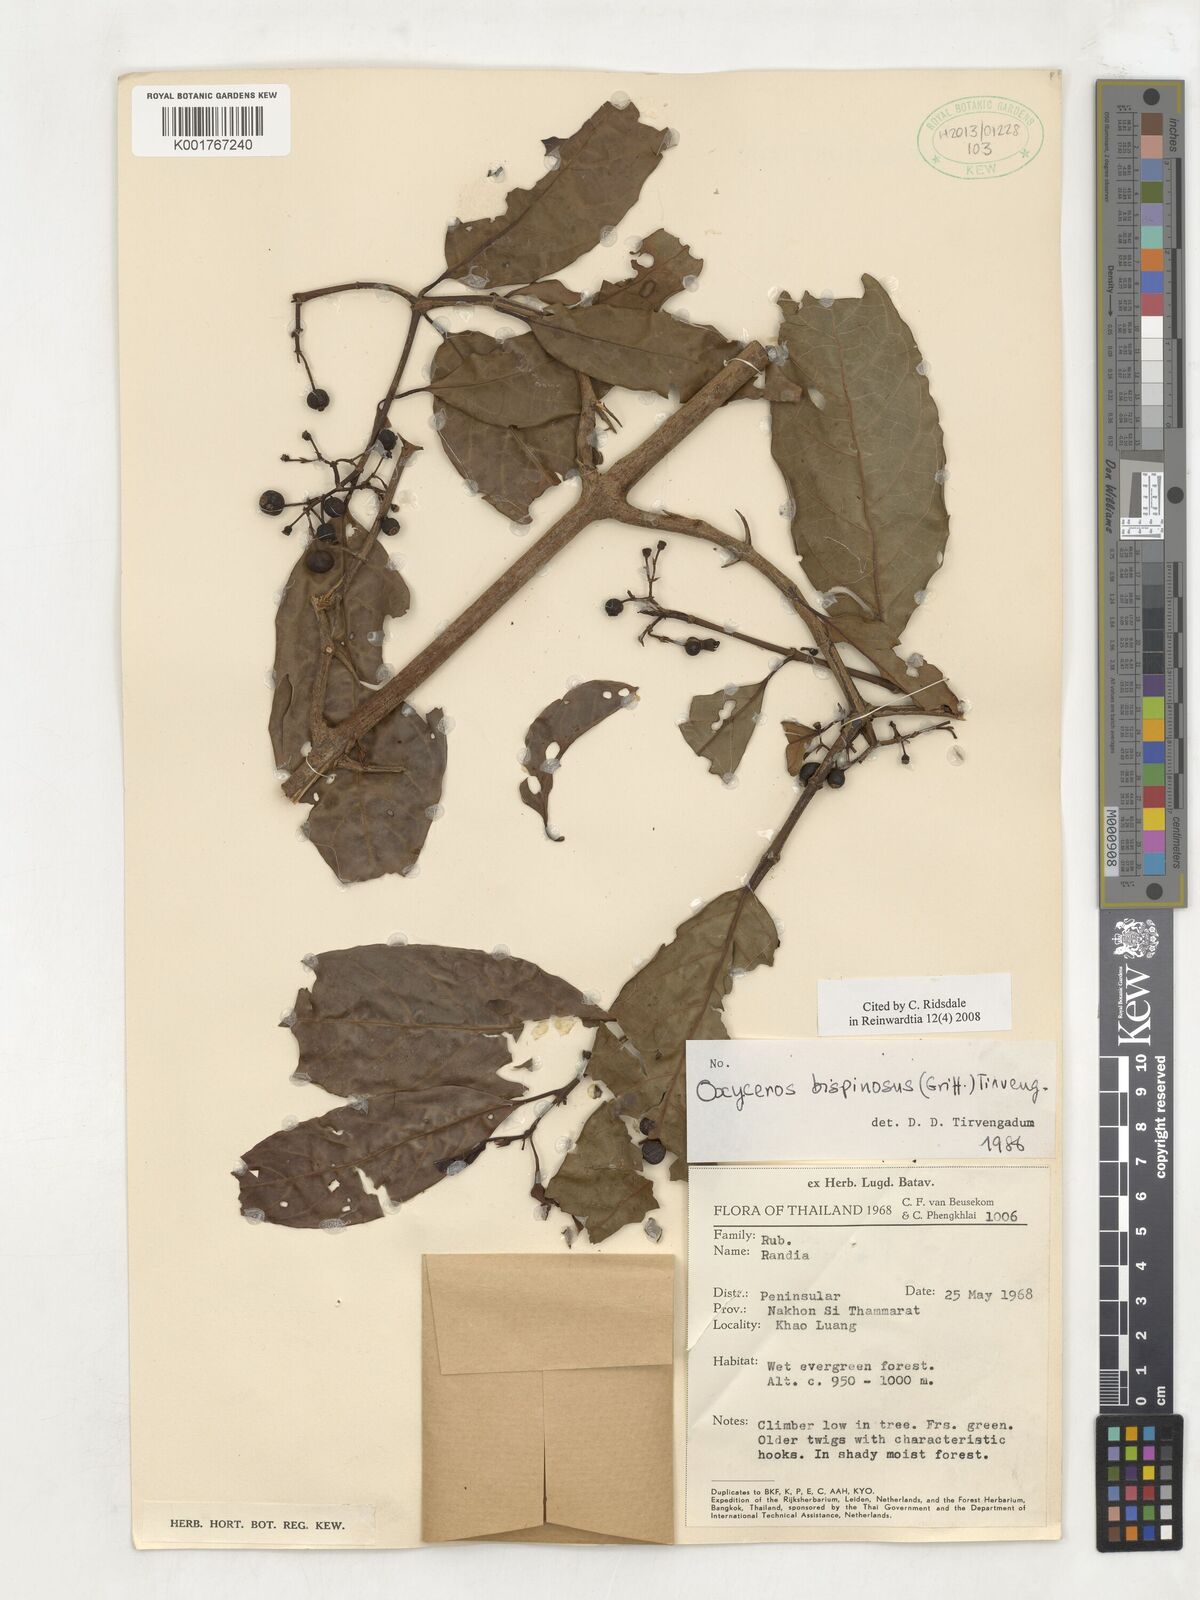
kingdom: Plantae
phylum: Tracheophyta
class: Magnoliopsida
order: Gentianales
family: Rubiaceae
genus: Oxyceros
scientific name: Oxyceros bispinosus
